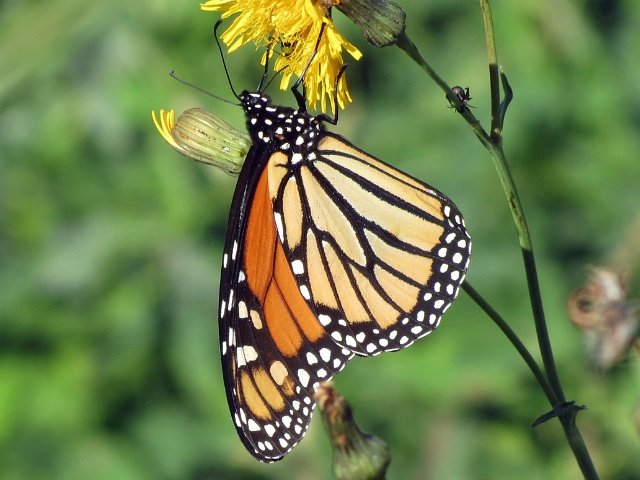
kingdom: Animalia
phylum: Arthropoda
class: Insecta
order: Lepidoptera
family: Nymphalidae
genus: Danaus
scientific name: Danaus plexippus
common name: Monarch
